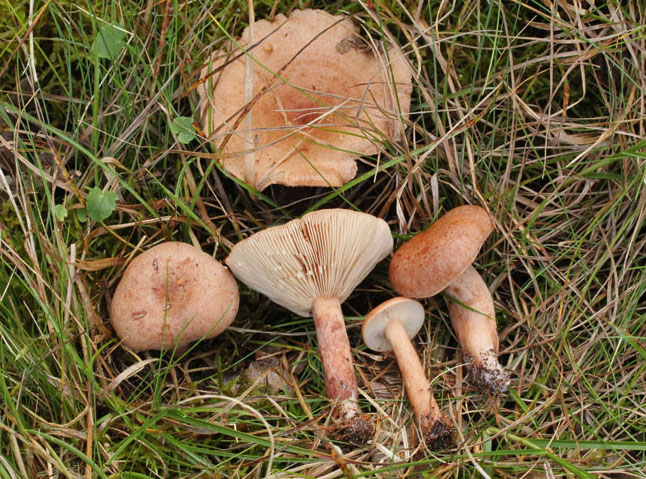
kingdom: Fungi
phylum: Basidiomycota
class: Agaricomycetes
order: Russulales
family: Russulaceae
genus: Lactarius
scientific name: Lactarius quietus
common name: ege-mælkehat
